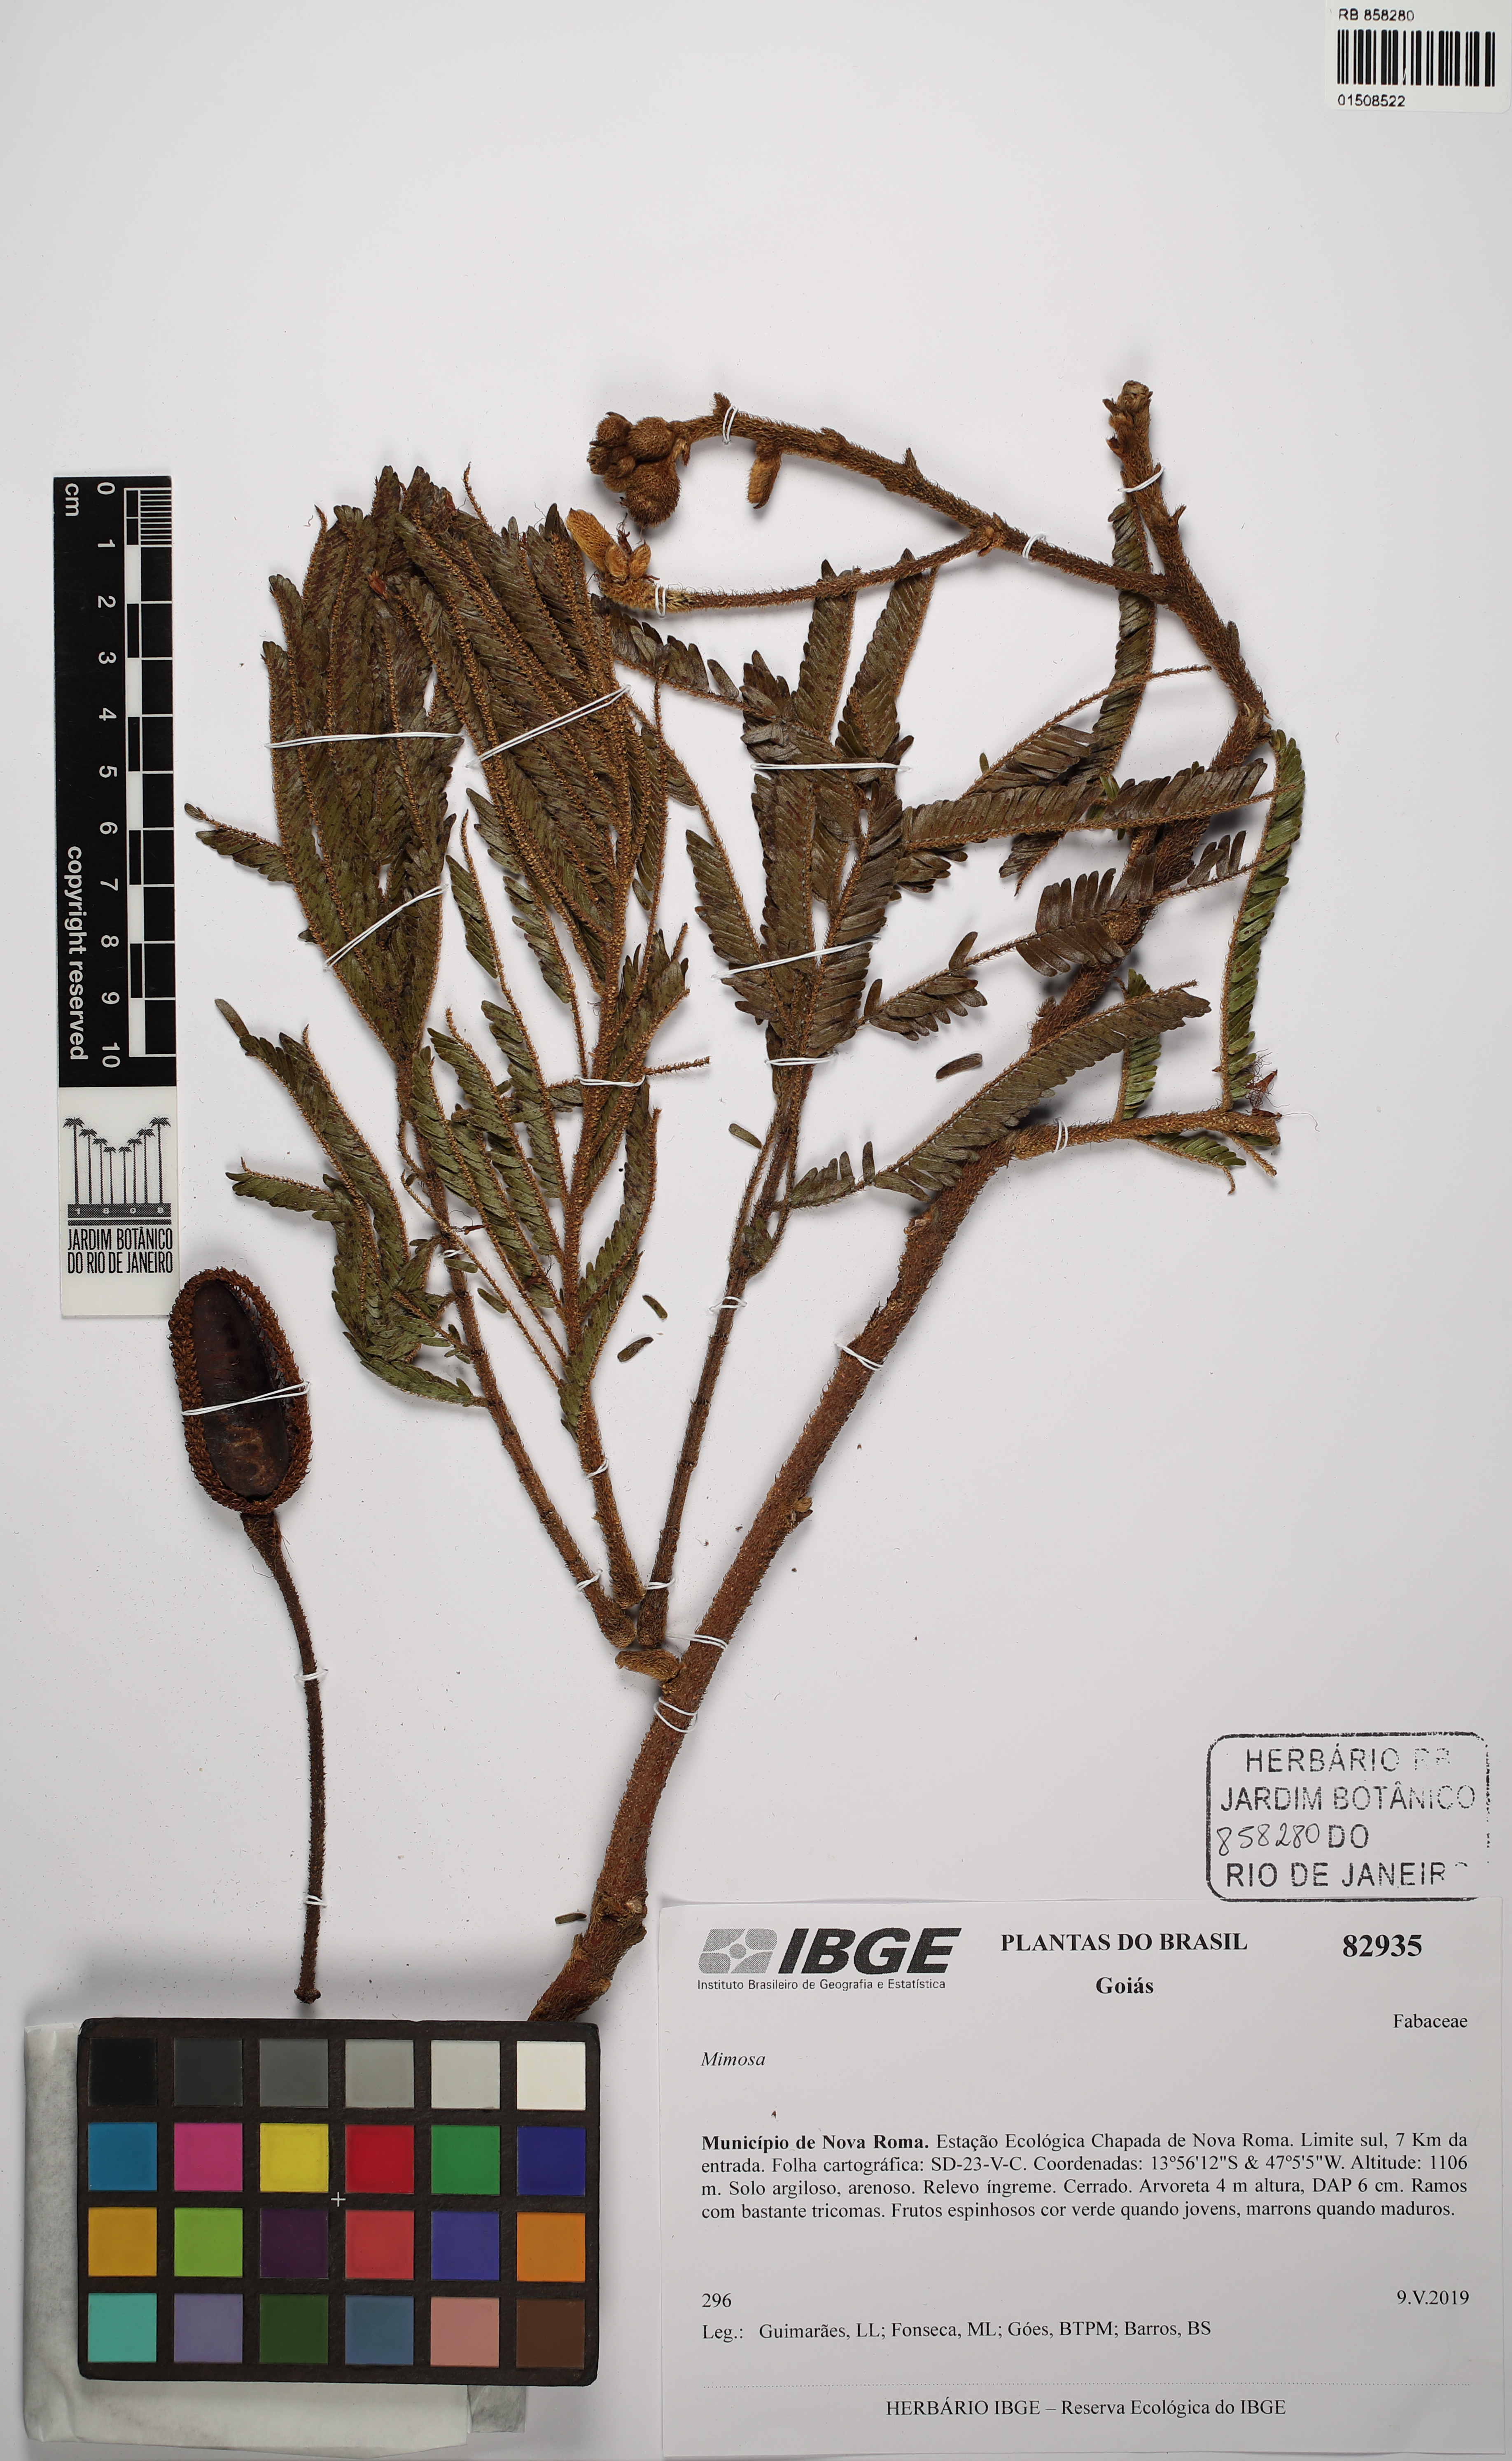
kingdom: Plantae
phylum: Tracheophyta
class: Magnoliopsida
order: Fabales
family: Fabaceae
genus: Mimosa
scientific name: Mimosa
